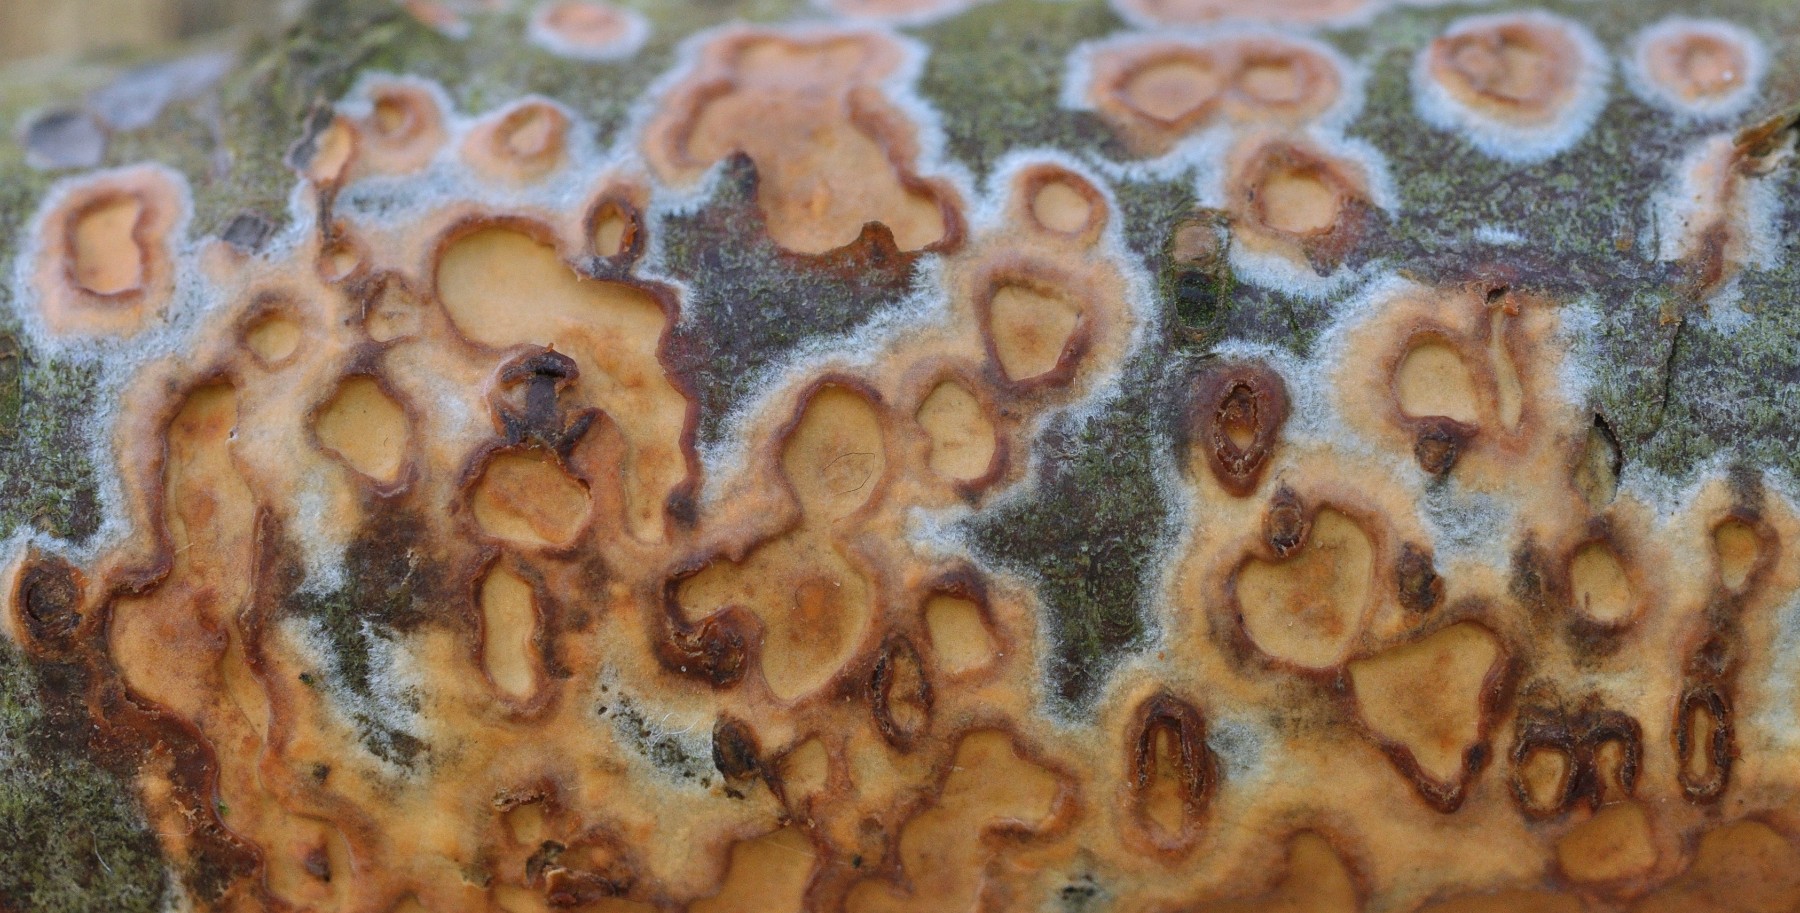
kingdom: Fungi
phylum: Basidiomycota
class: Agaricomycetes
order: Russulales
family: Peniophoraceae
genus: Peniophora
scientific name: Peniophora incarnata
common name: laksefarvet voksskind
